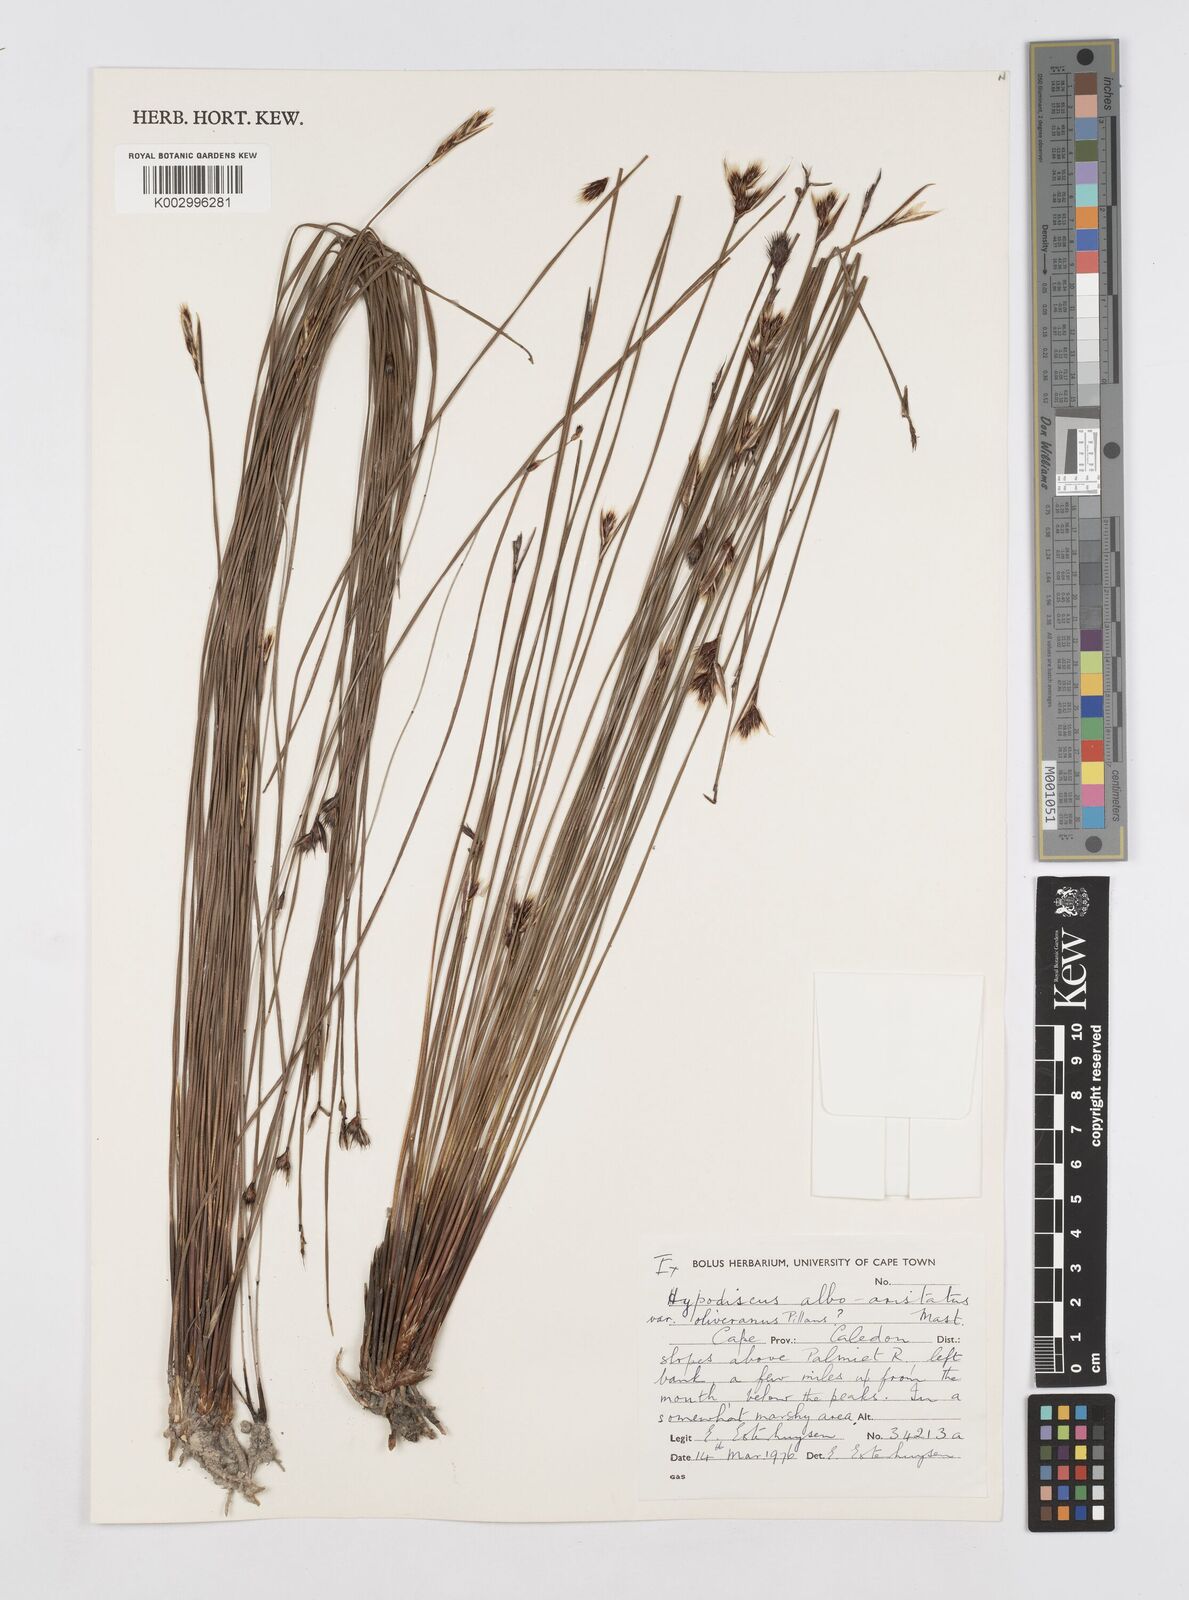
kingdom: Plantae
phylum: Tracheophyta
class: Liliopsida
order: Poales
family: Restionaceae
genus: Hypodiscus
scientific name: Hypodiscus alboaristatus
